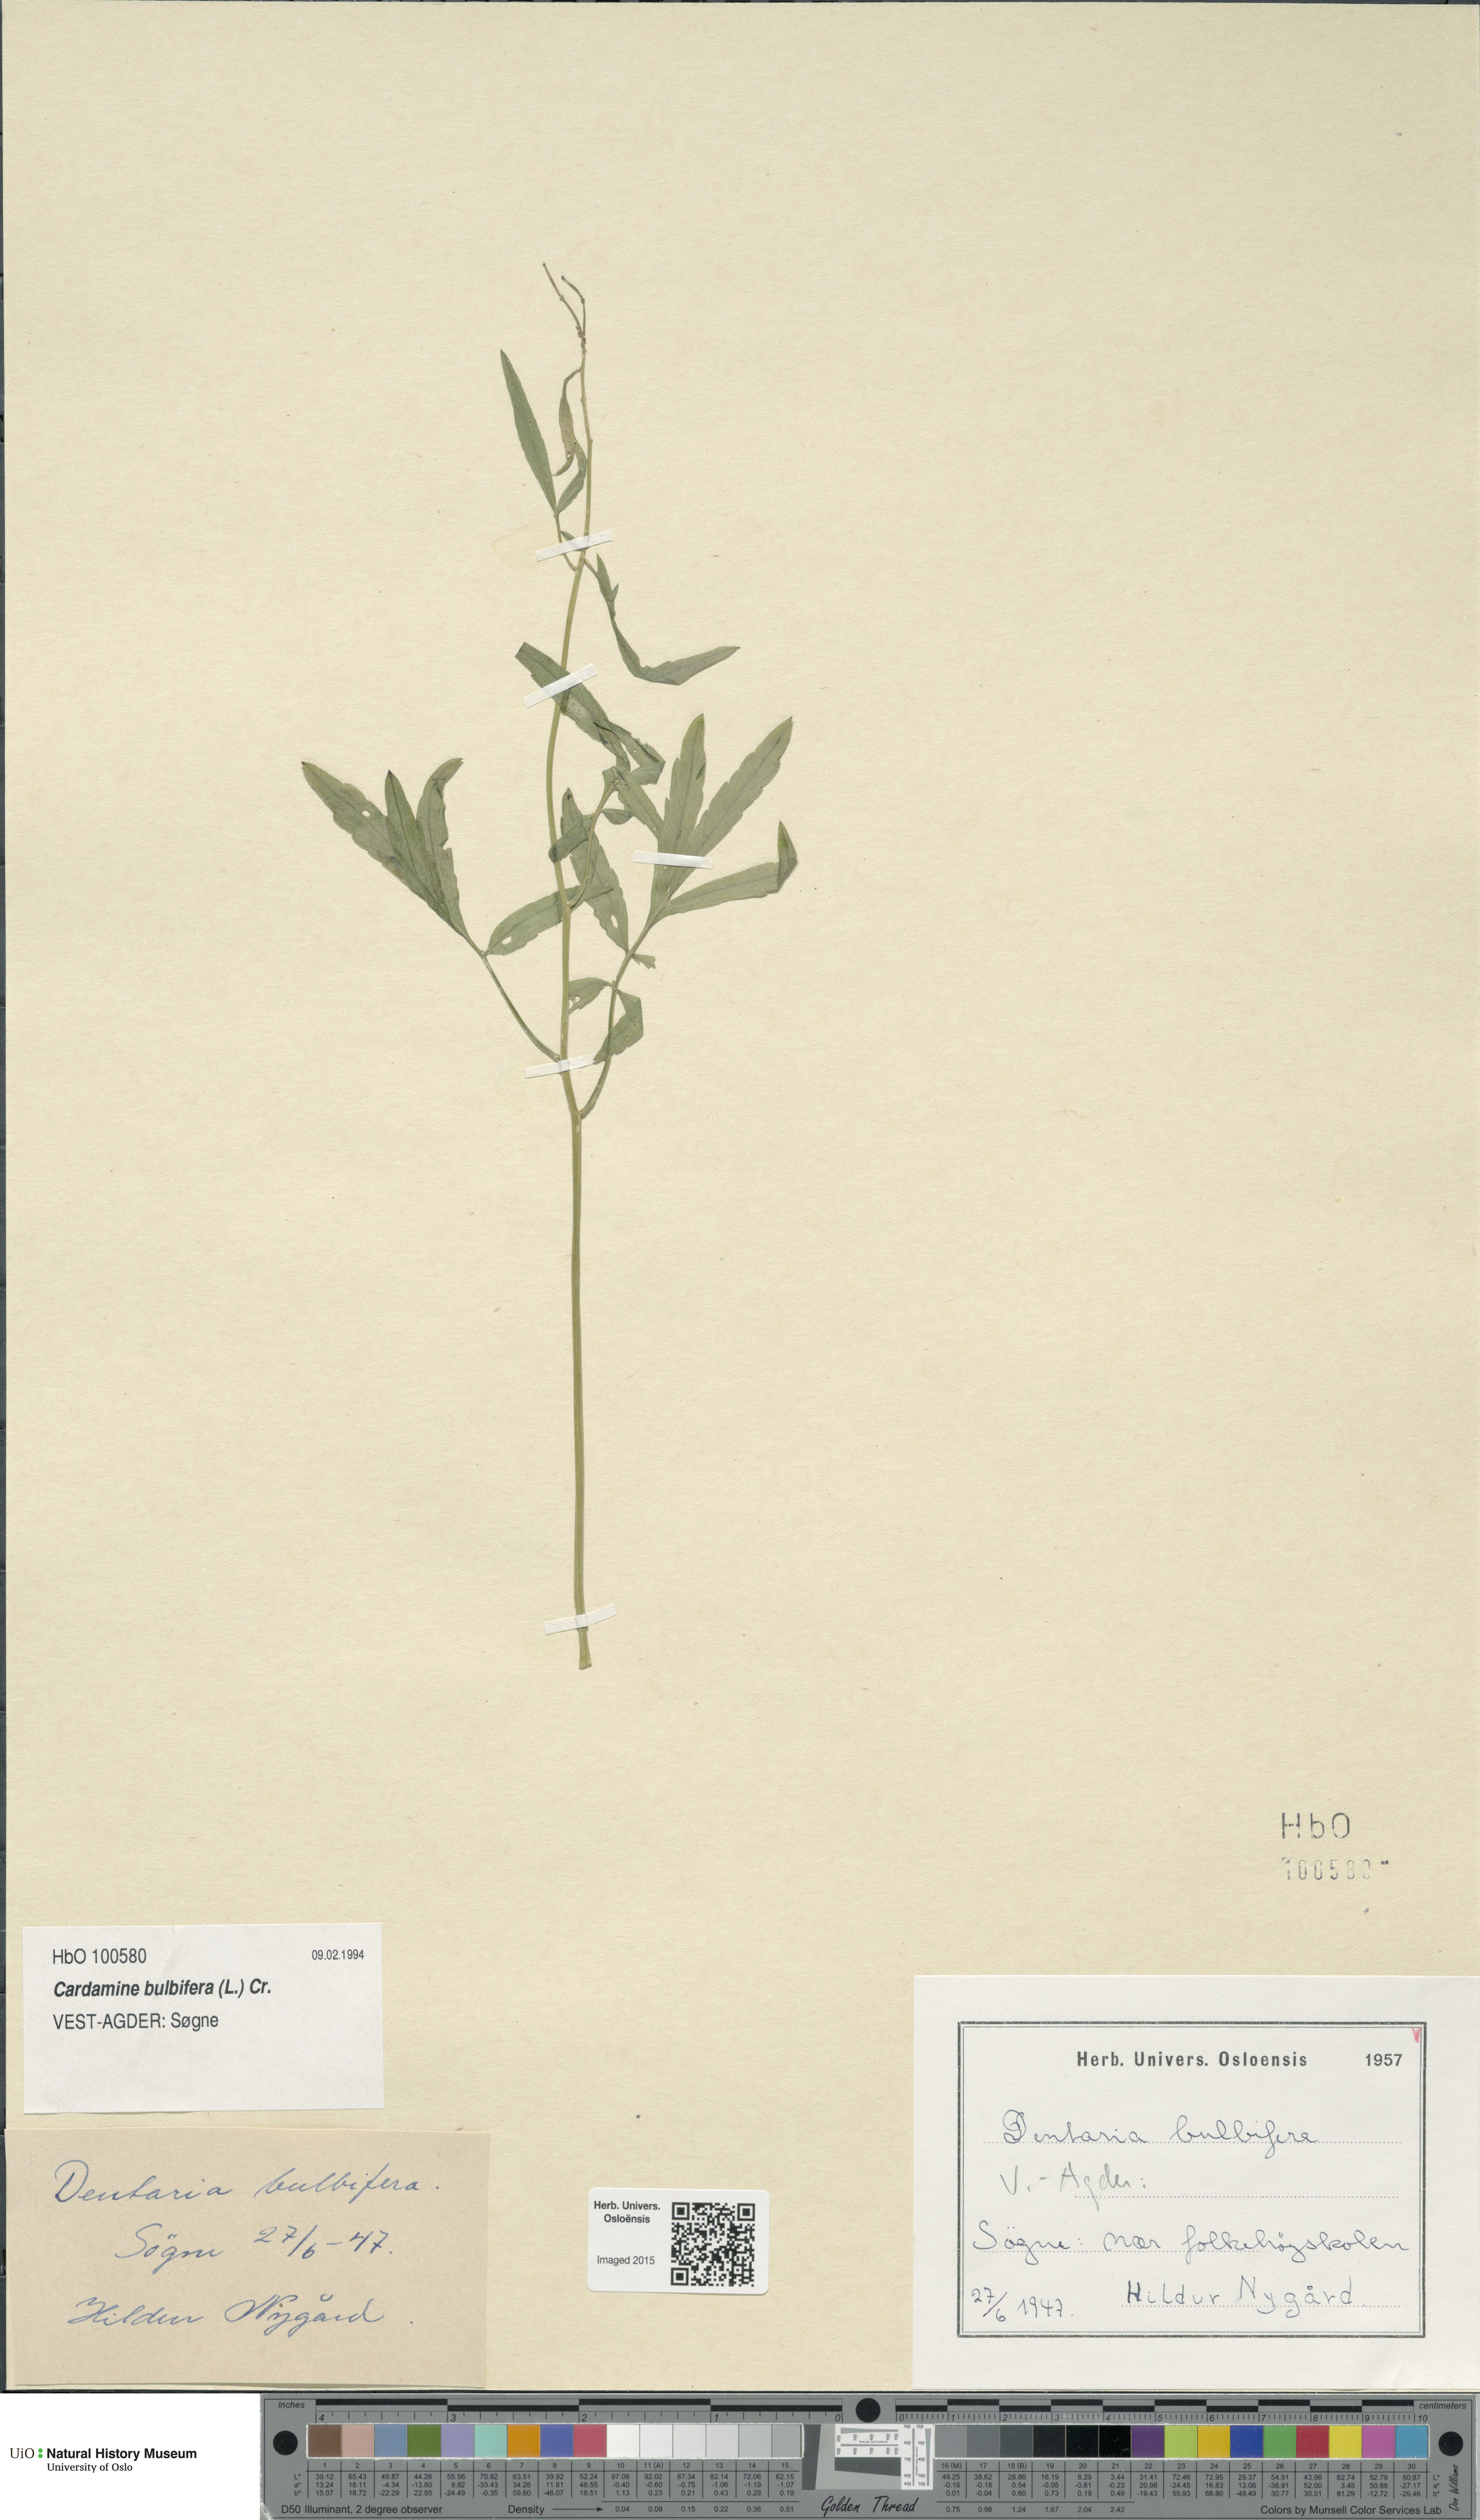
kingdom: Plantae
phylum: Tracheophyta
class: Magnoliopsida
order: Brassicales
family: Brassicaceae
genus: Cardamine
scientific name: Cardamine bulbifera
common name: Coralroot bittercress
